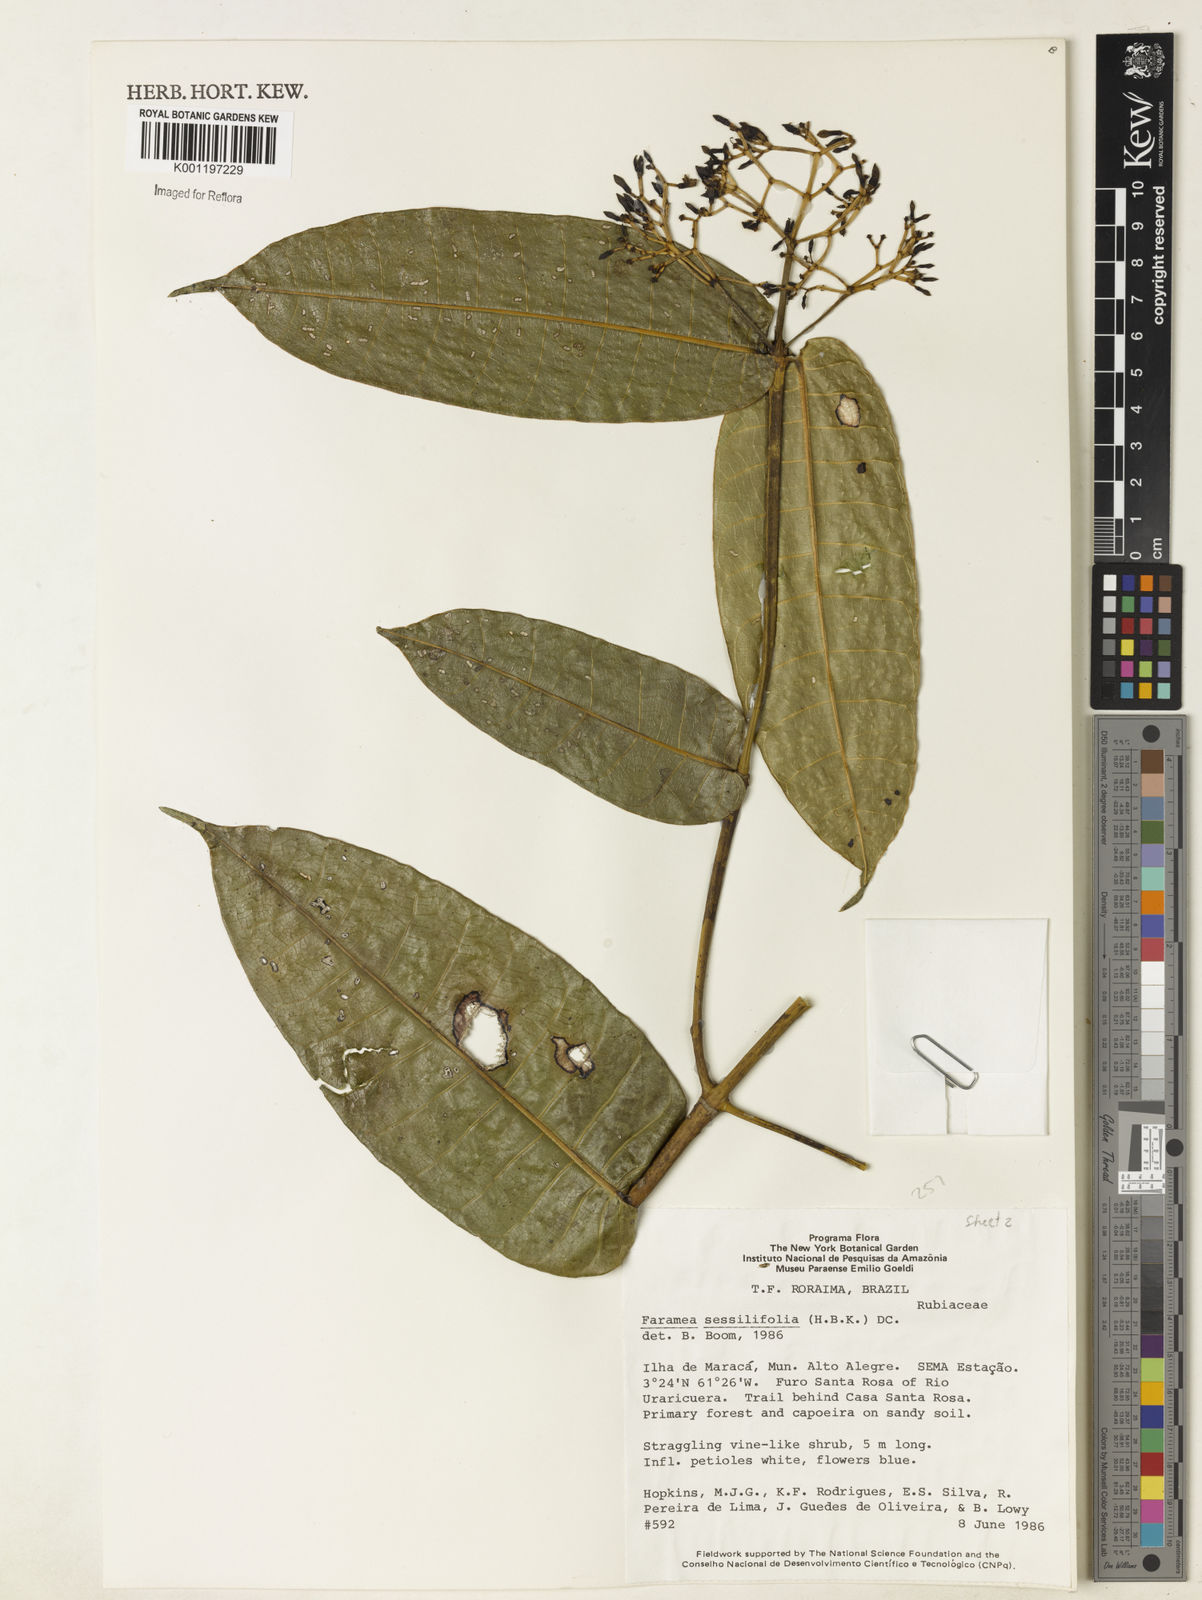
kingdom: Plantae
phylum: Tracheophyta
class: Magnoliopsida
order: Gentianales
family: Rubiaceae
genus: Faramea
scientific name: Faramea sessilifolia
